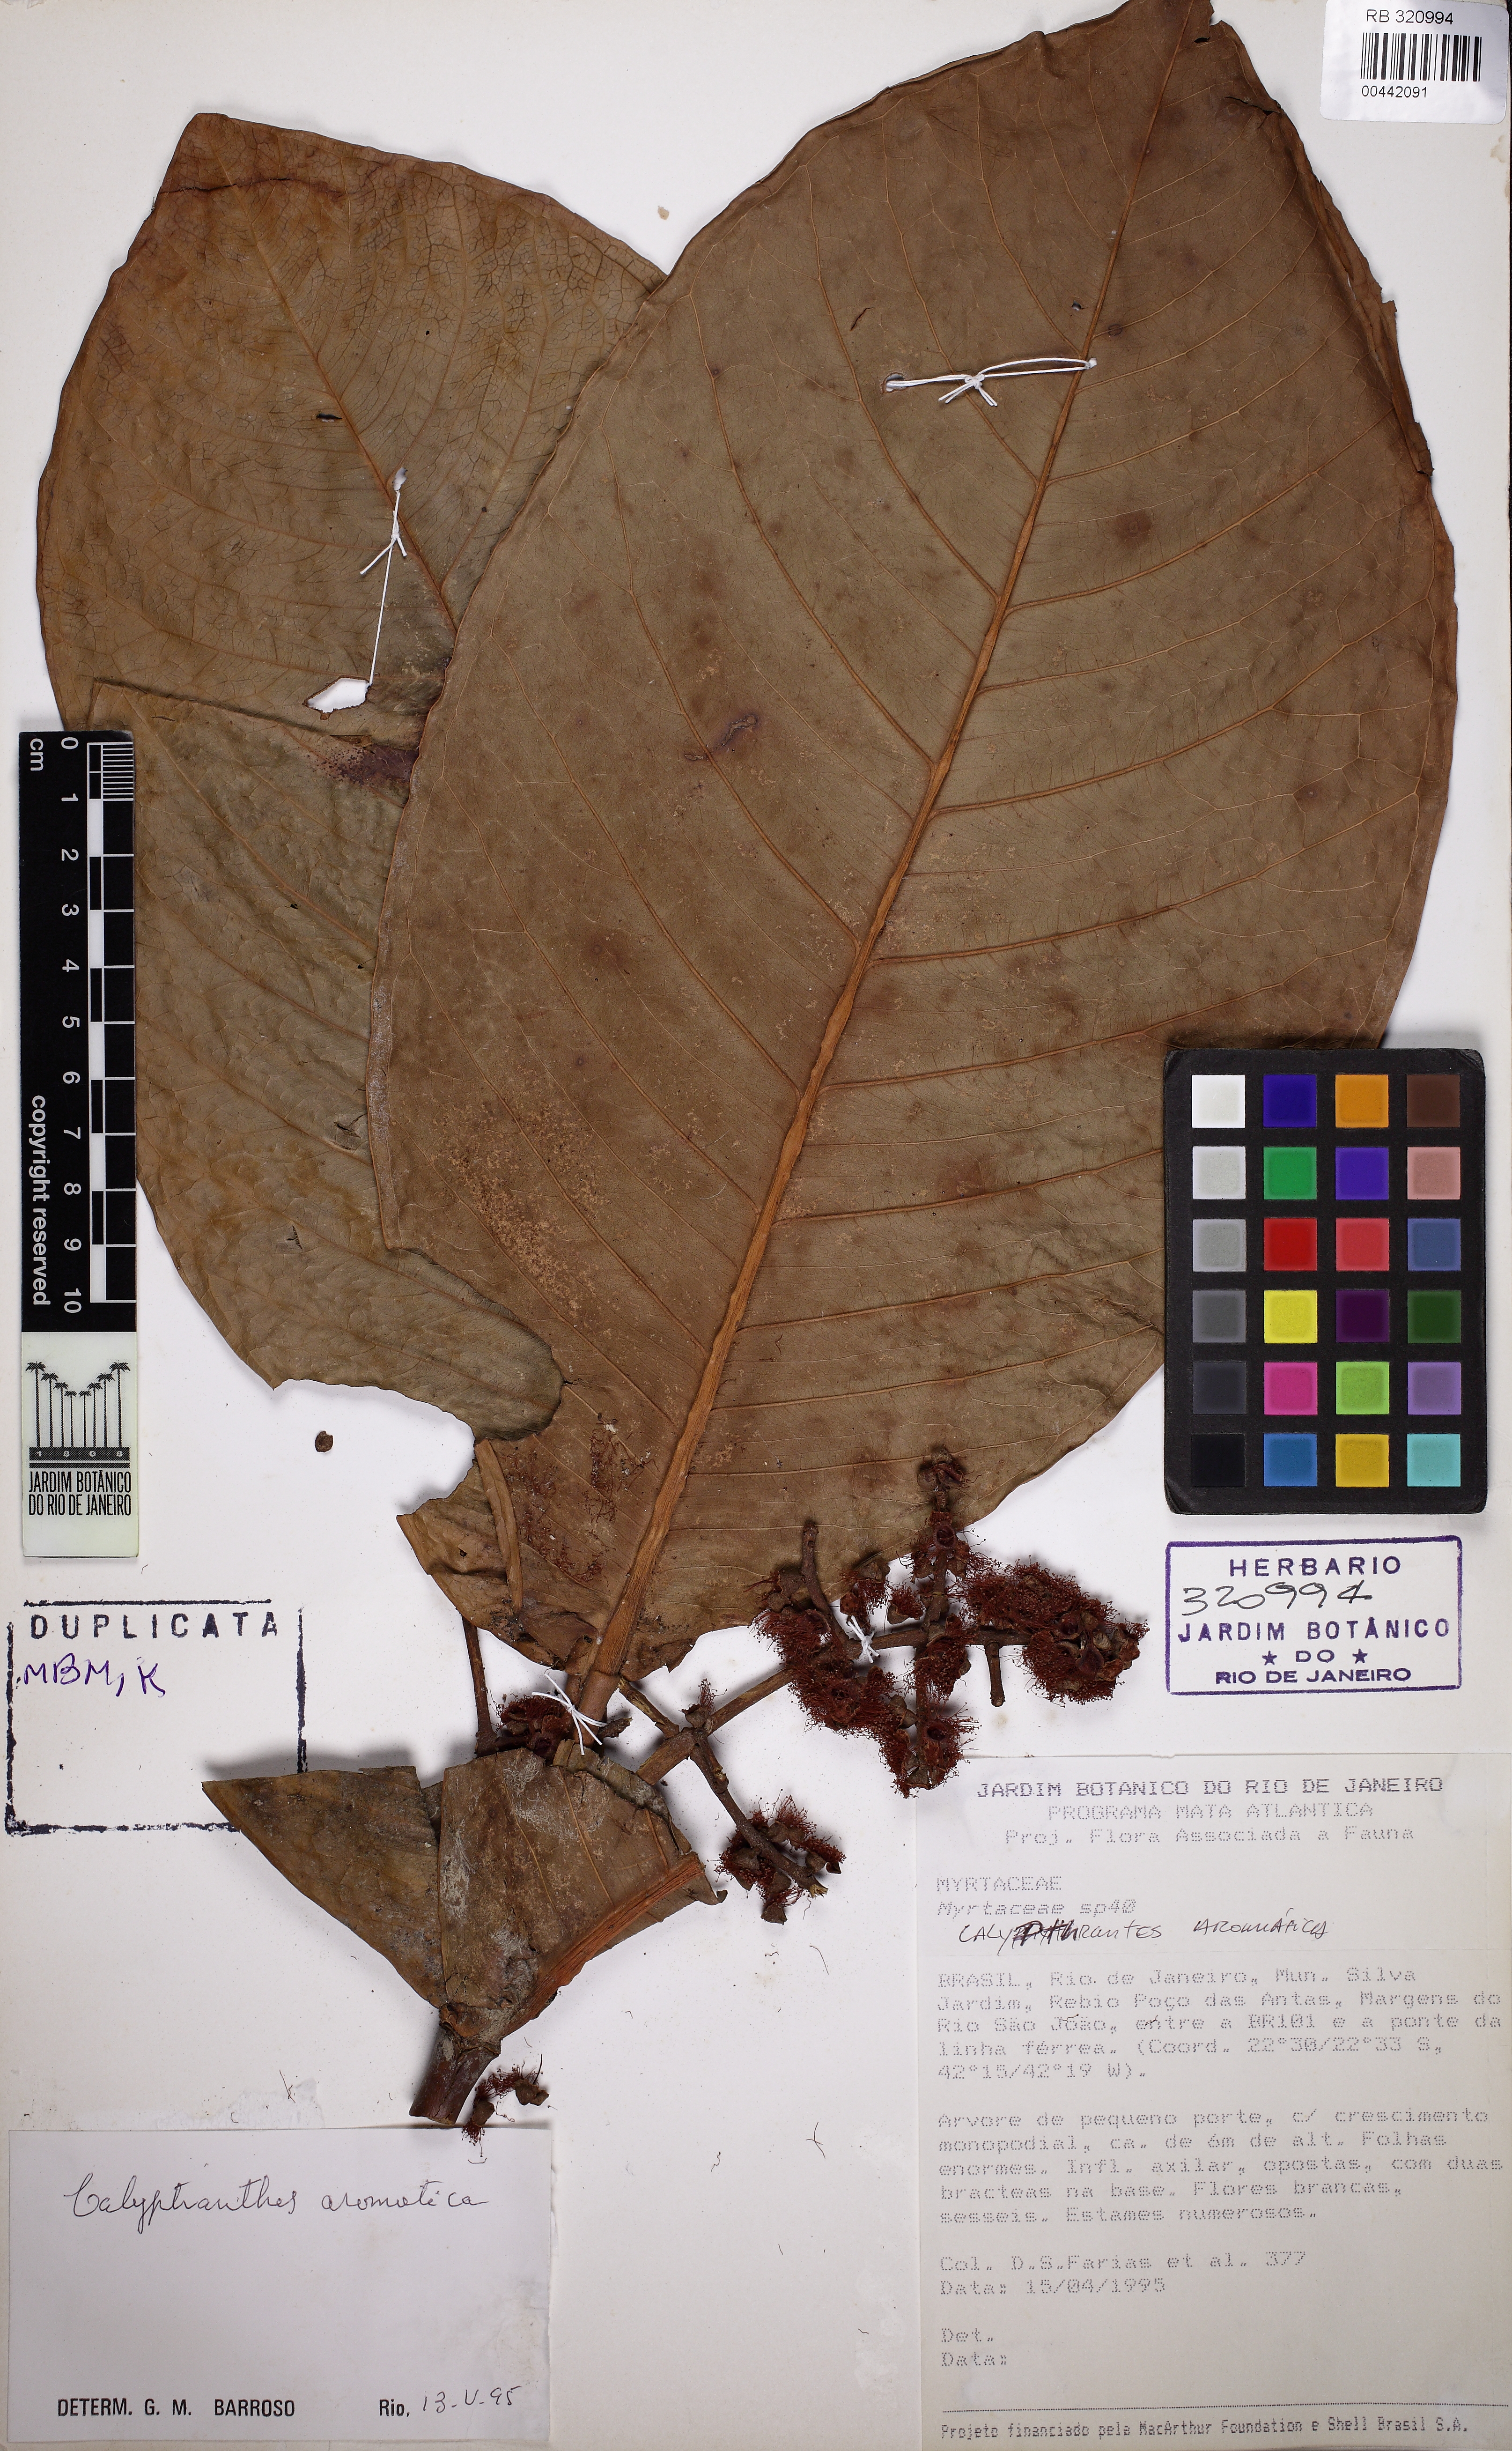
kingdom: Plantae
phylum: Tracheophyta
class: Magnoliopsida
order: Myrtales
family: Myrtaceae
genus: Myrcia
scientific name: Myrcia carioca
